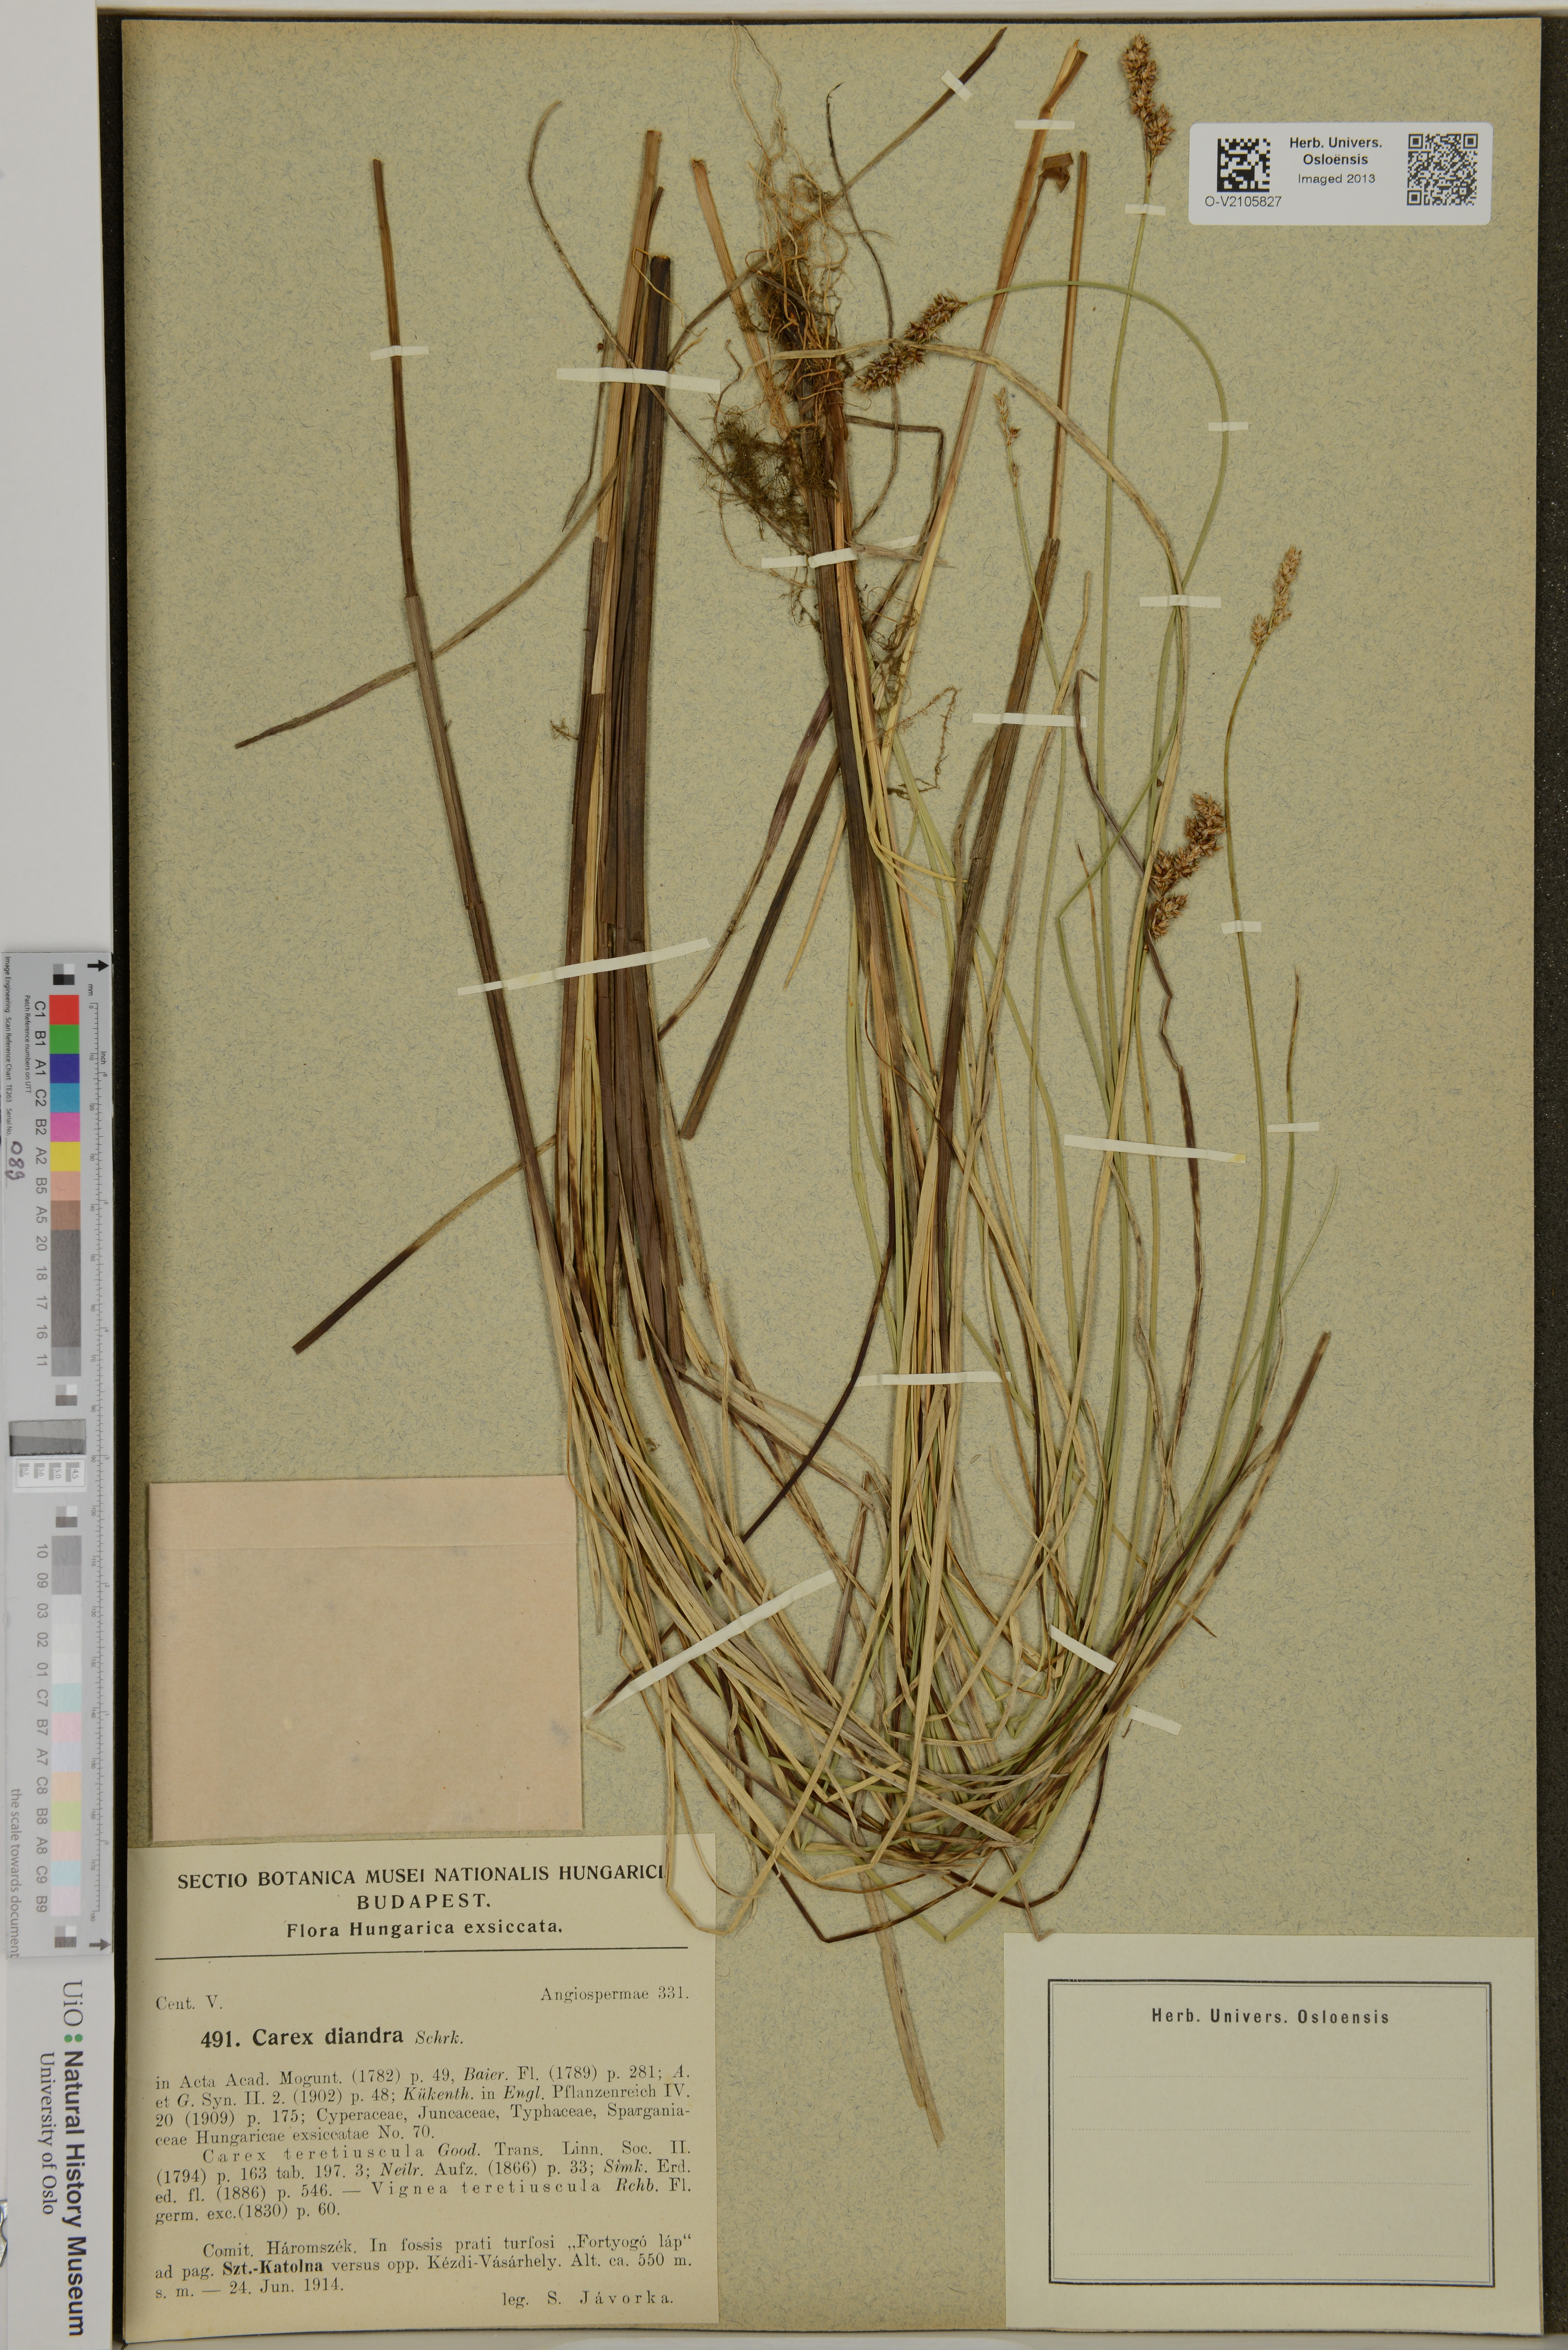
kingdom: Plantae
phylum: Tracheophyta
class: Liliopsida
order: Poales
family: Cyperaceae
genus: Carex
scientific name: Carex diandra
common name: Lesser tussock-sedge
